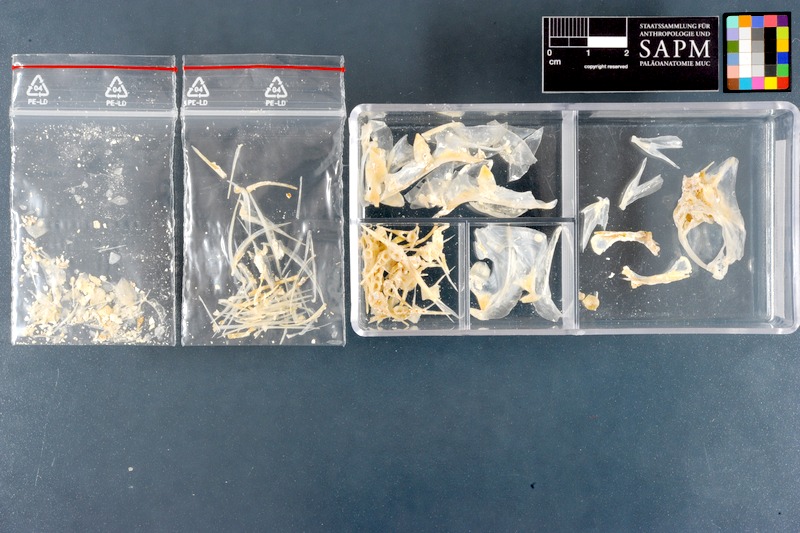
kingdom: Animalia
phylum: Chordata
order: Perciformes
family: Pempheridae
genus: Pempheris
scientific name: Pempheris vanicolensis
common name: Vanikoro sweeper
